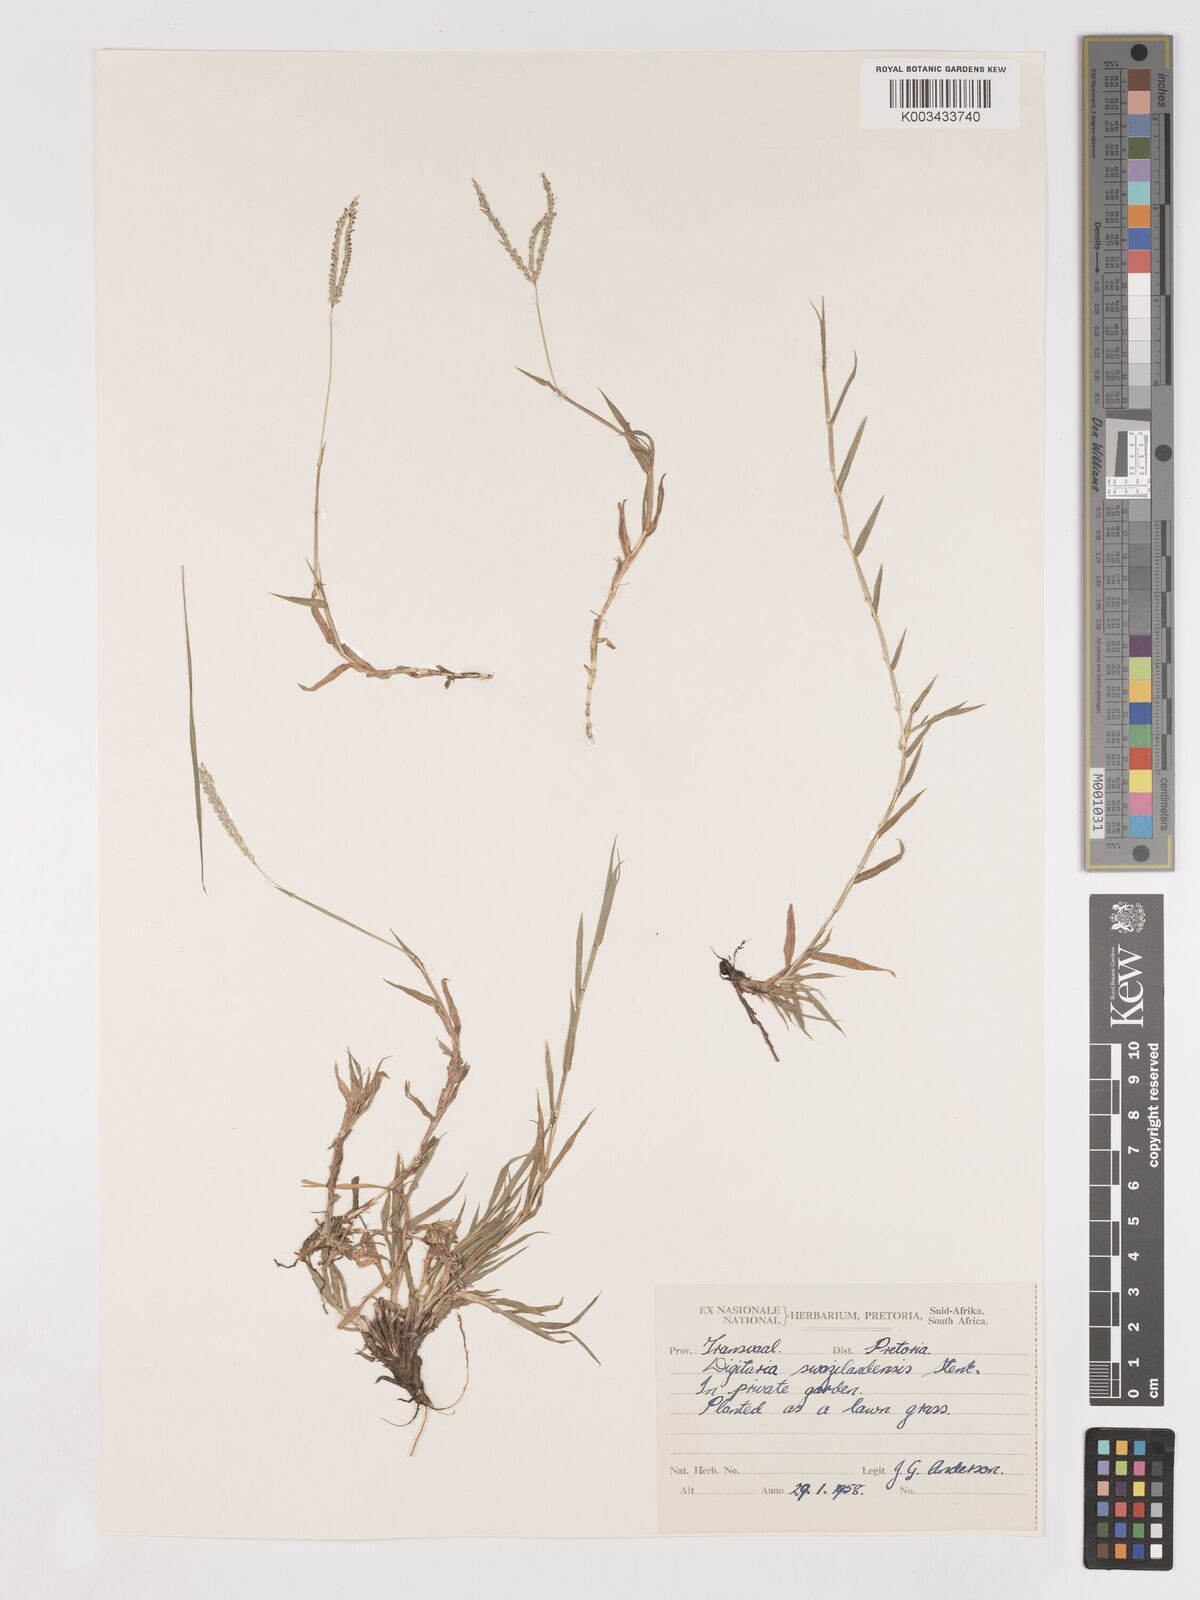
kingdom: Plantae
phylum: Tracheophyta
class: Liliopsida
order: Poales
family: Poaceae
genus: Digitaria
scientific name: Digitaria didactyla
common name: Blue couch
